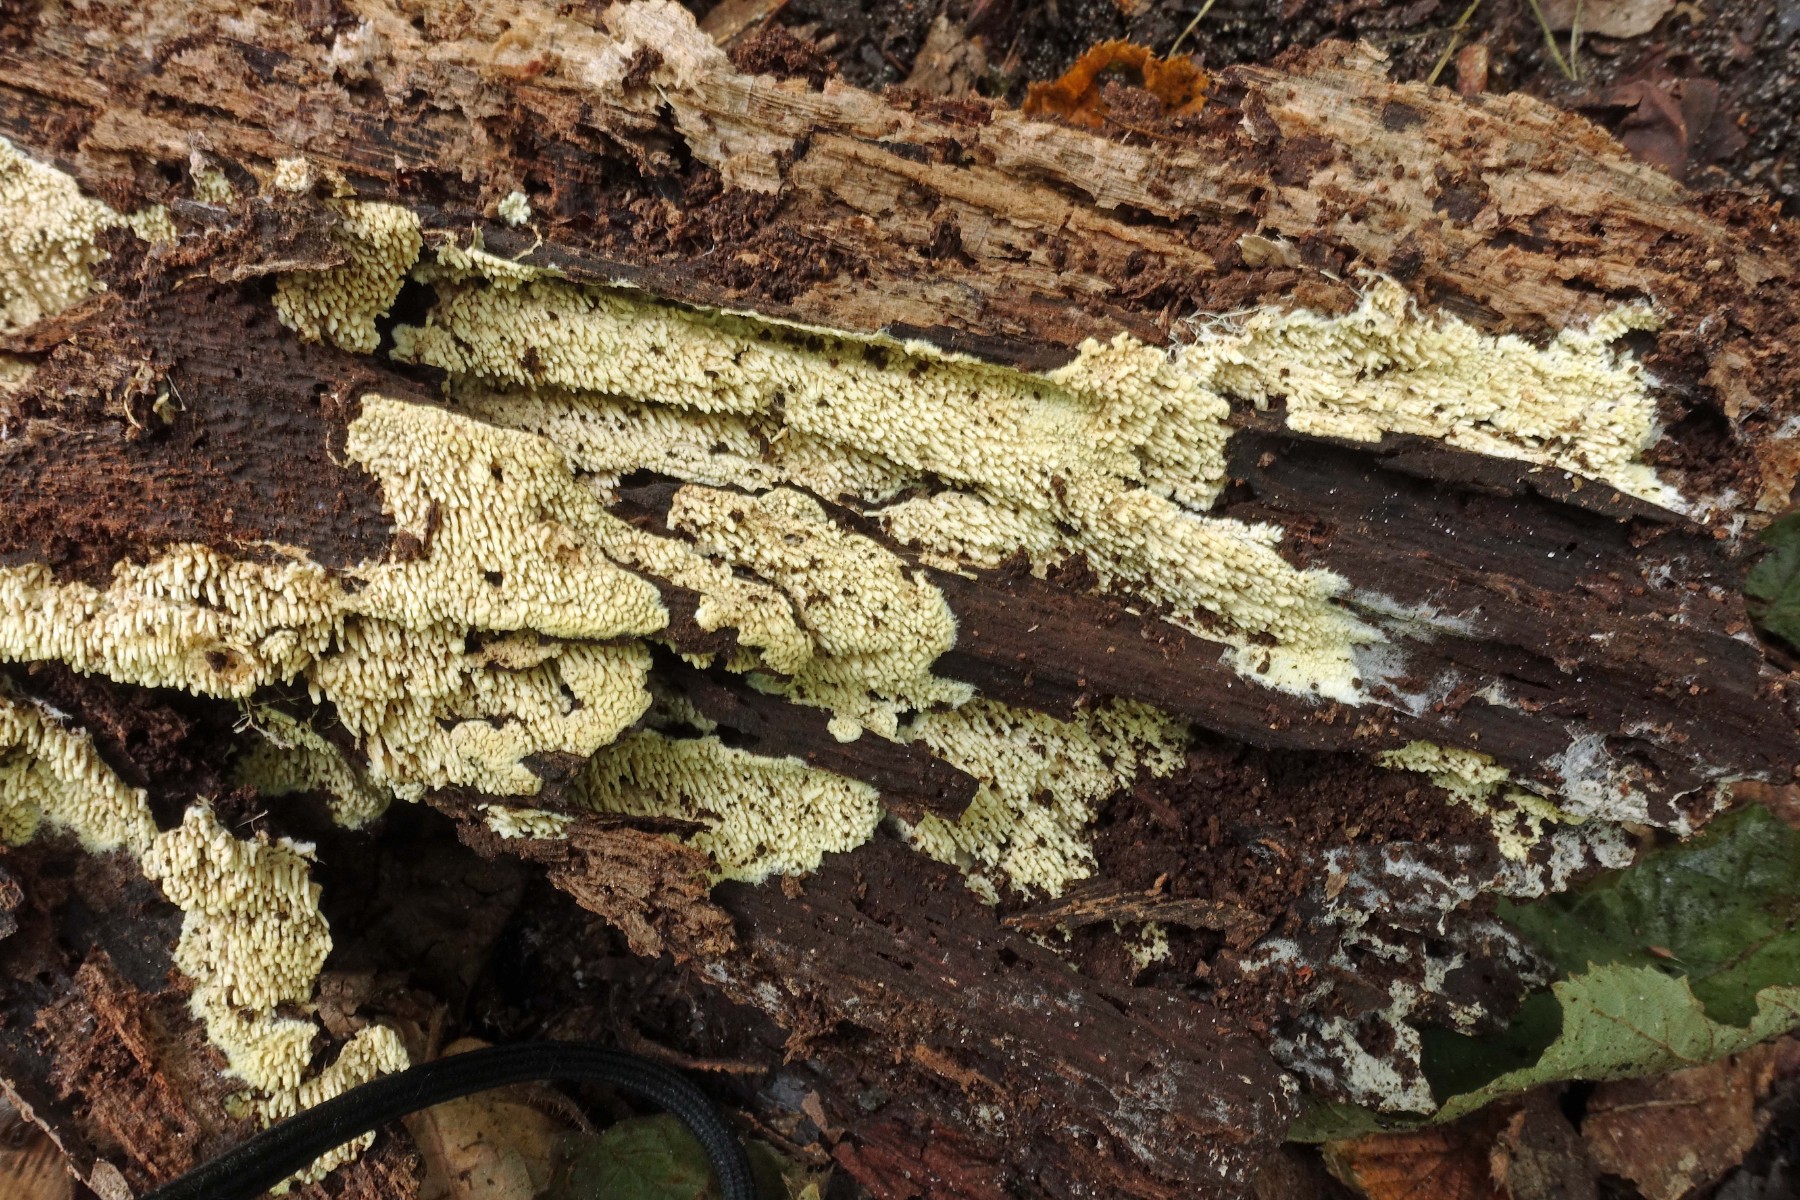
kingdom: Fungi
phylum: Basidiomycota
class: Agaricomycetes
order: Agaricales
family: Stephanosporaceae
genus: Cristinia
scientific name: Cristinia eichleri
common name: tandet citrushinde
